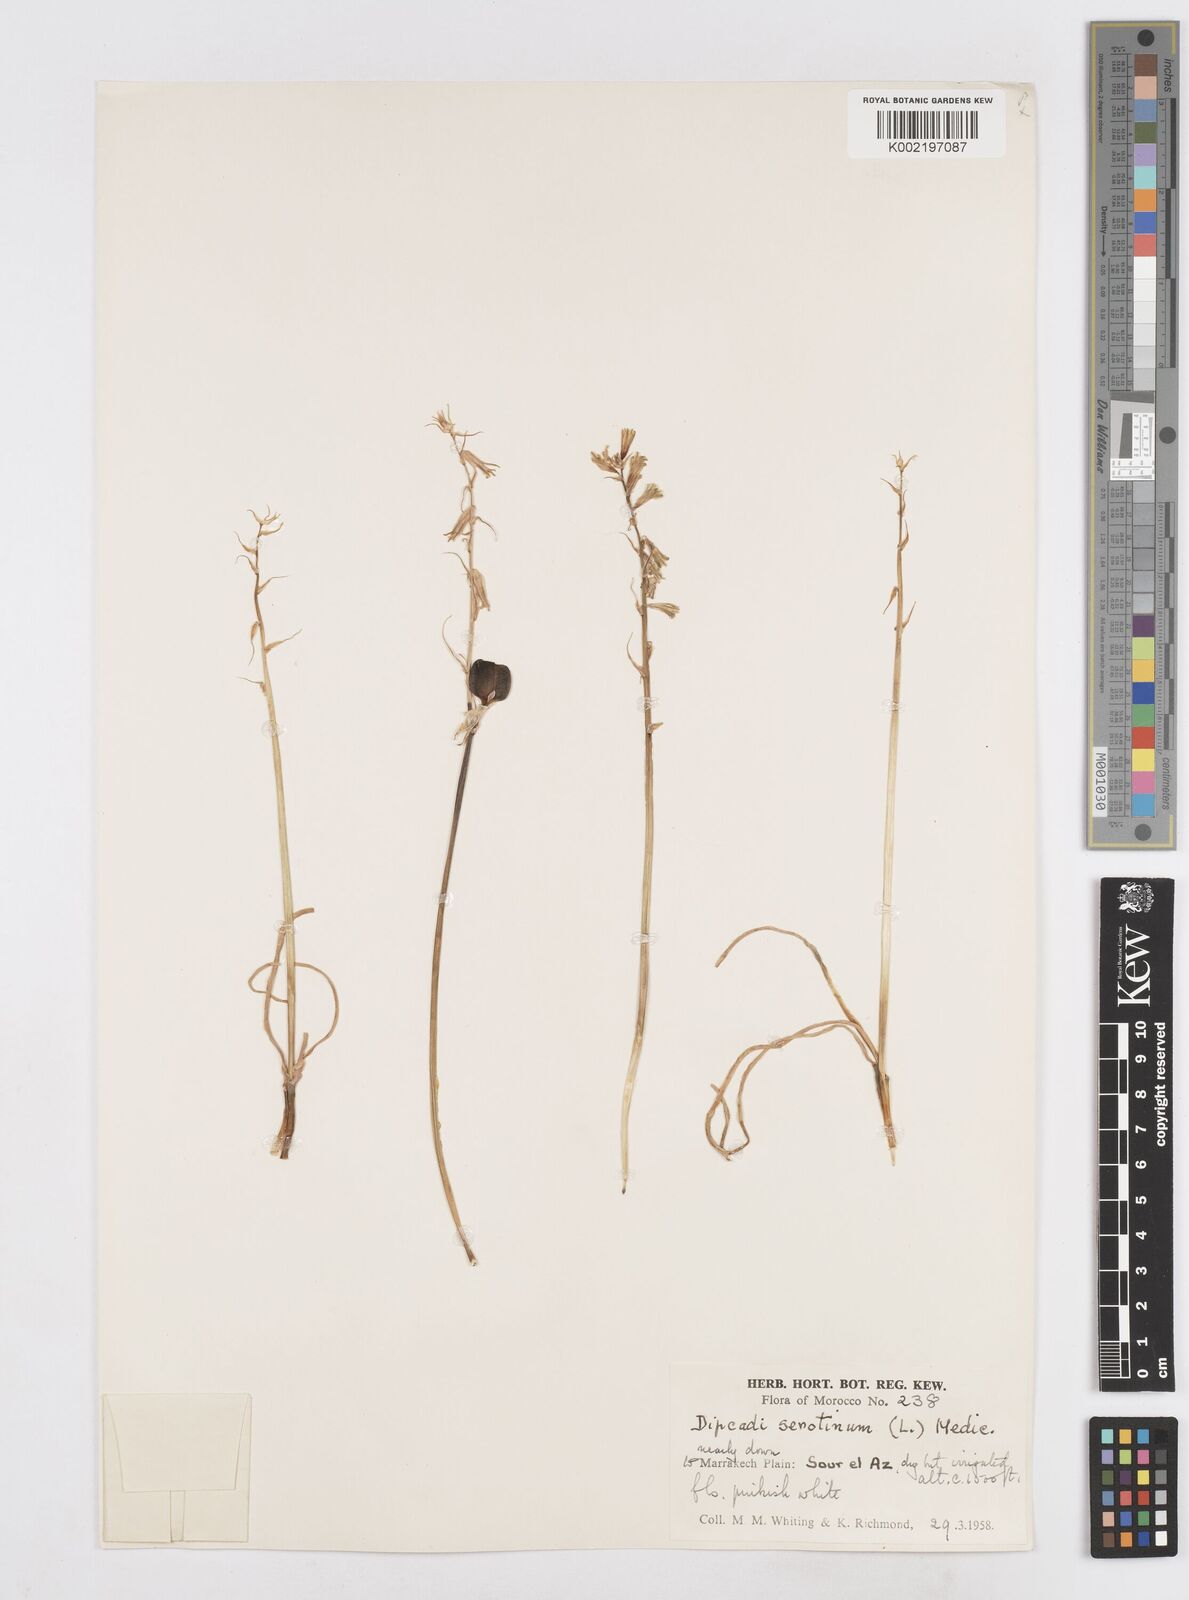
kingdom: Plantae
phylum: Tracheophyta
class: Liliopsida
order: Asparagales
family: Asparagaceae
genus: Dipcadi
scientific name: Dipcadi serotinum
